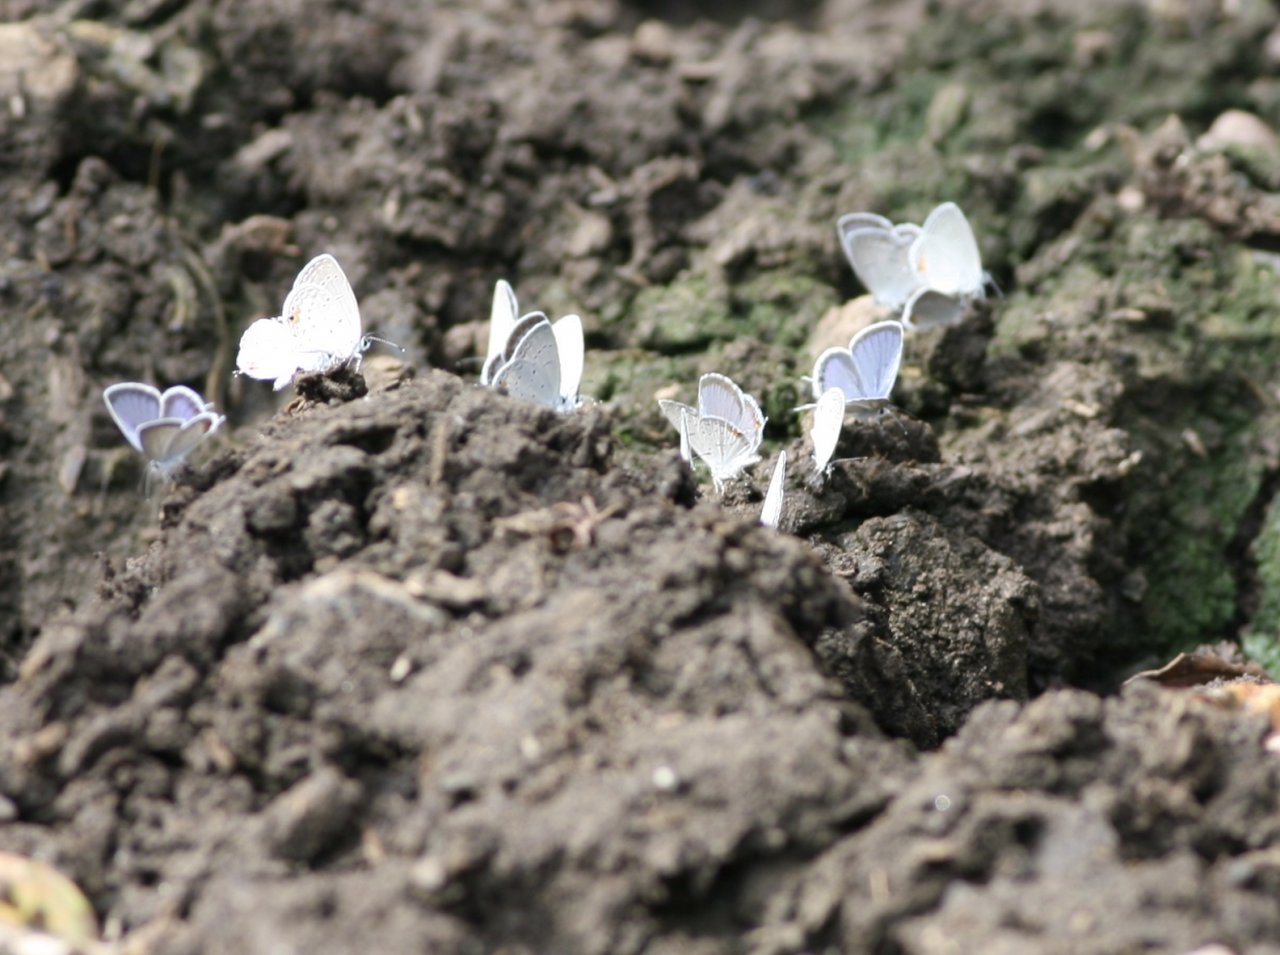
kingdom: Animalia
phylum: Arthropoda
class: Insecta
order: Lepidoptera
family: Lycaenidae
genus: Elkalyce
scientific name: Elkalyce comyntas
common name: Eastern Tailed-Blue
